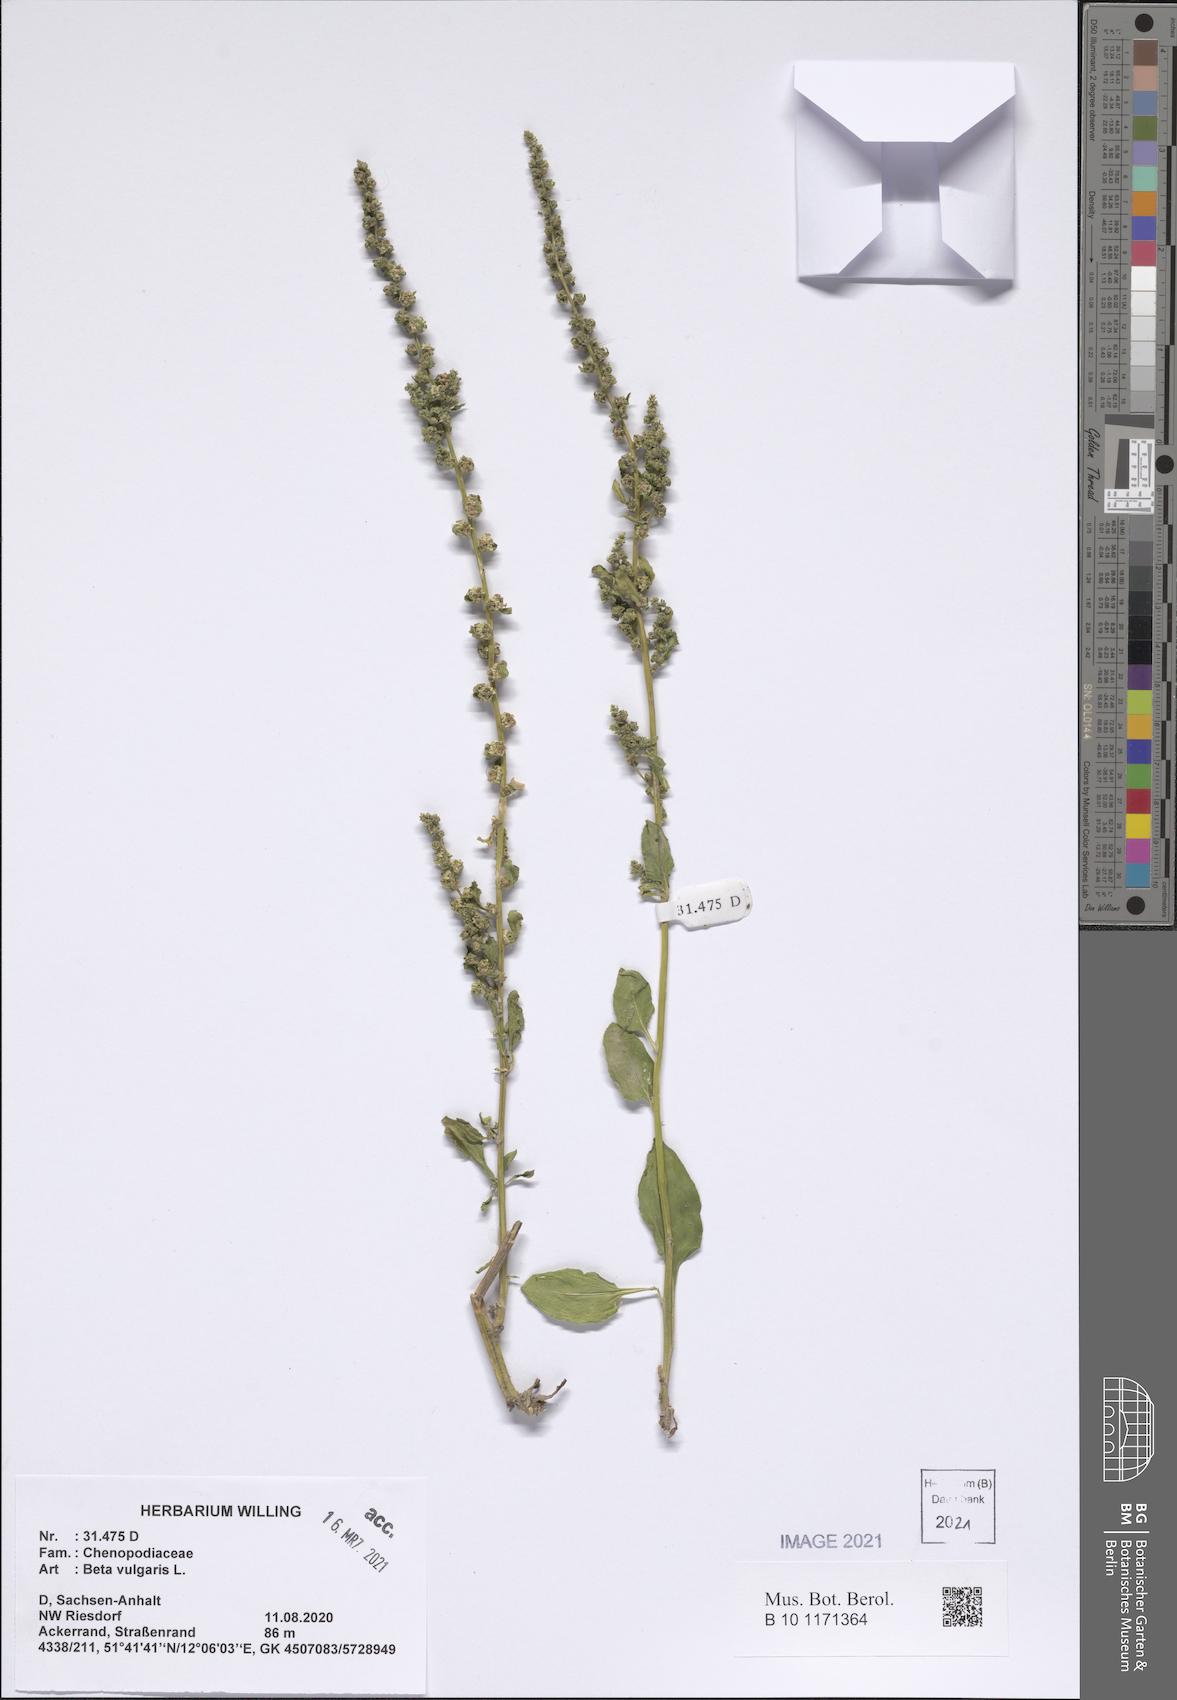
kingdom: Plantae
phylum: Tracheophyta
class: Magnoliopsida
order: Caryophyllales
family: Amaranthaceae
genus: Beta
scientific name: Beta vulgaris
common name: Beet
